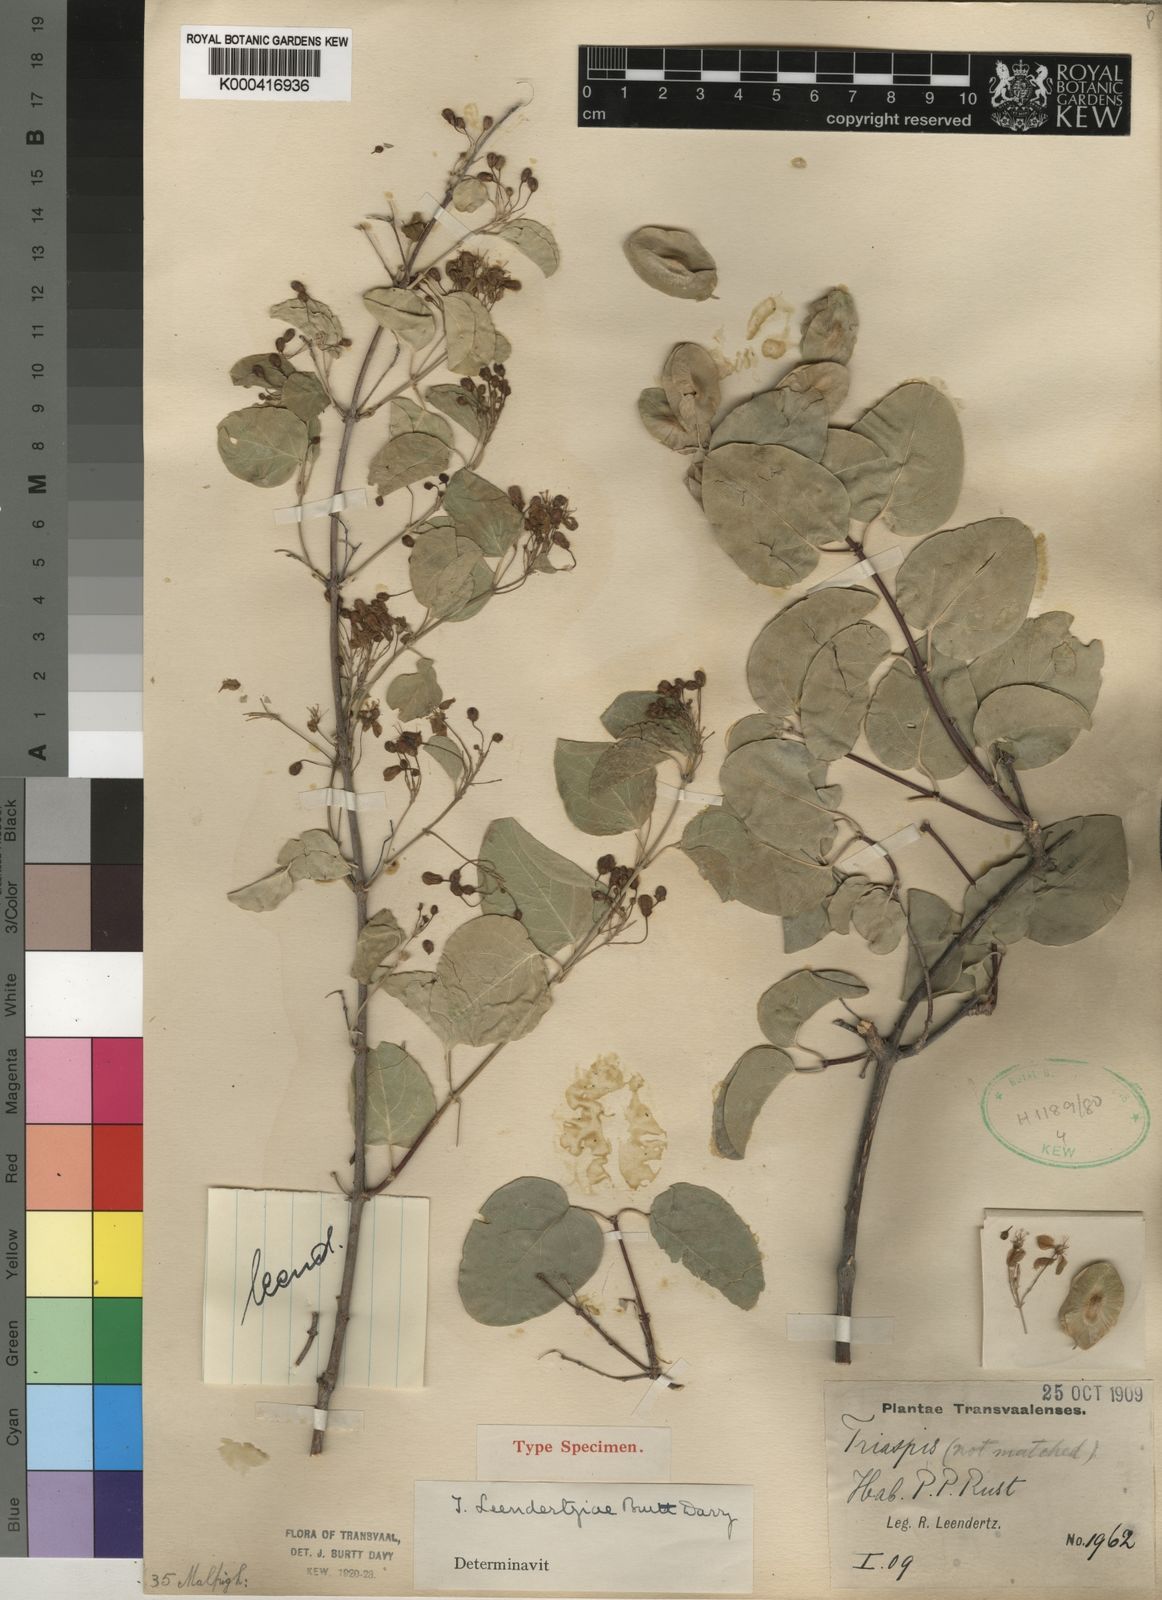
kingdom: Plantae
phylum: Tracheophyta
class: Magnoliopsida
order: Malpighiales
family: Malpighiaceae
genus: Triaspis
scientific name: Triaspis glaucophylla
